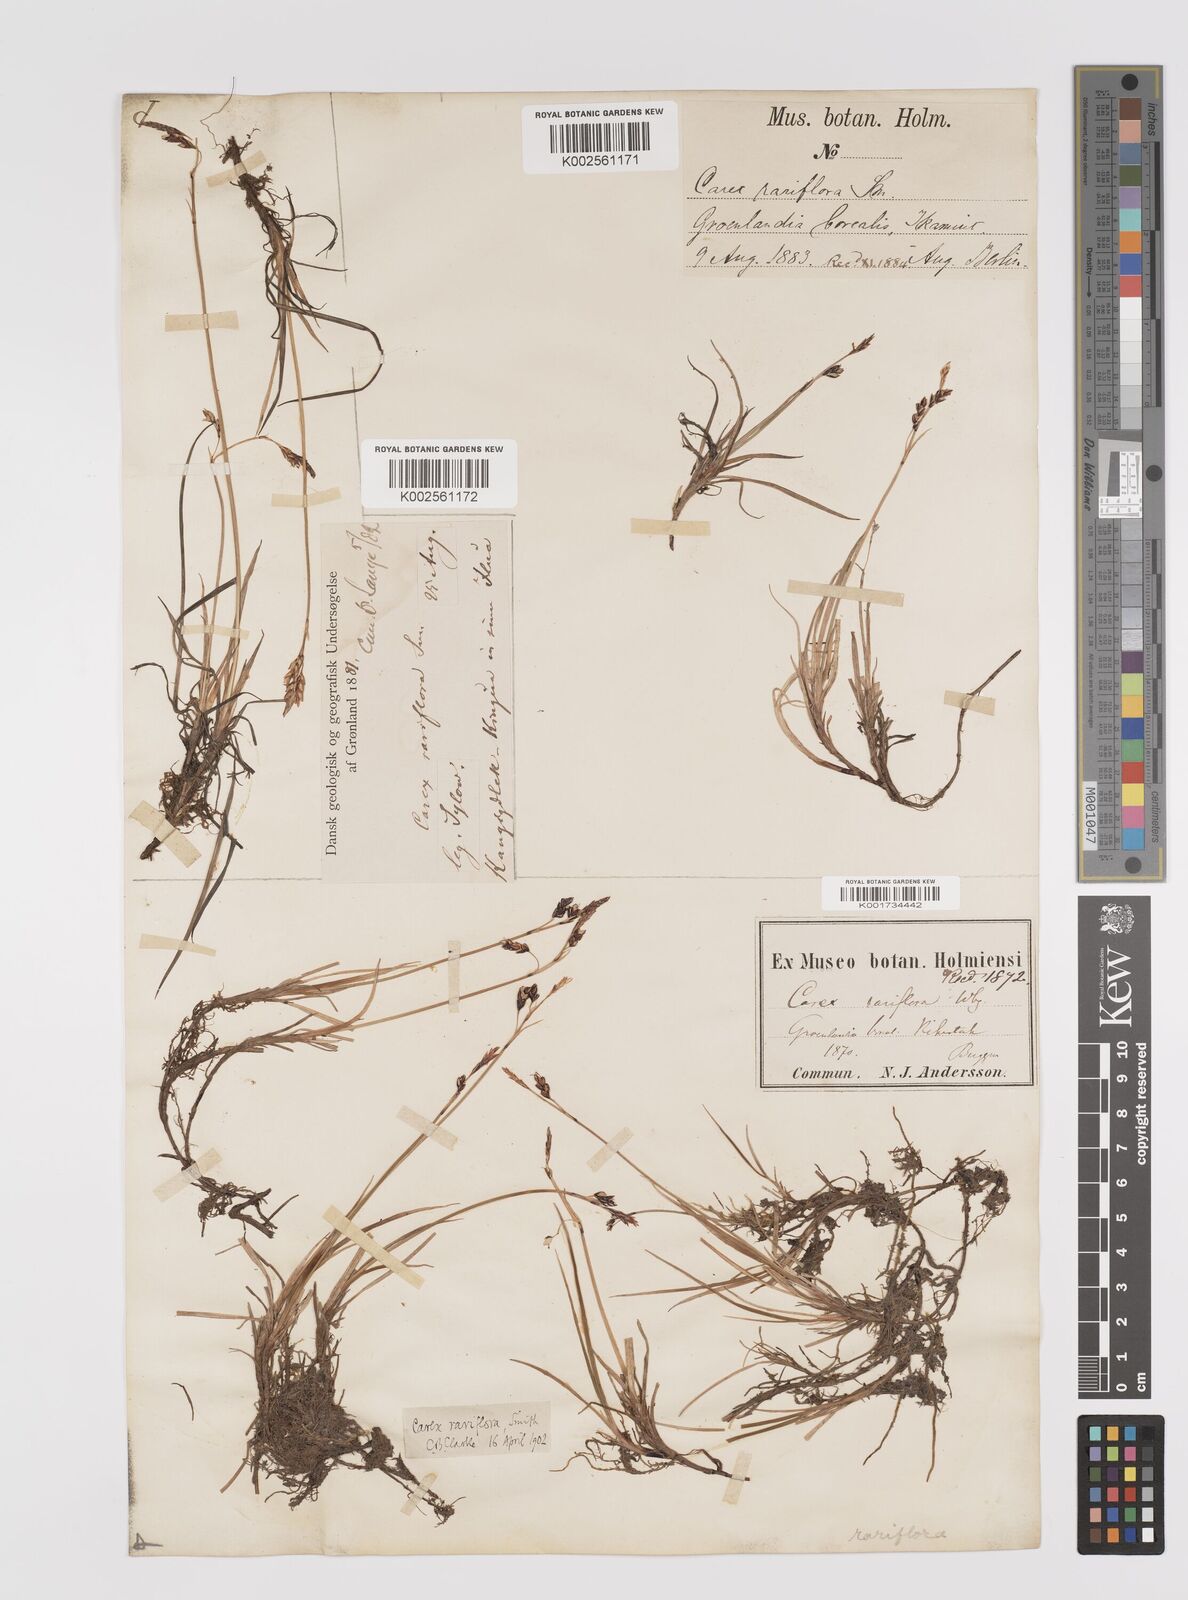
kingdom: Plantae
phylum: Tracheophyta
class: Liliopsida
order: Poales
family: Cyperaceae
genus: Carex
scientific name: Carex rariflora
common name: Loose-flowered alpine sedge
